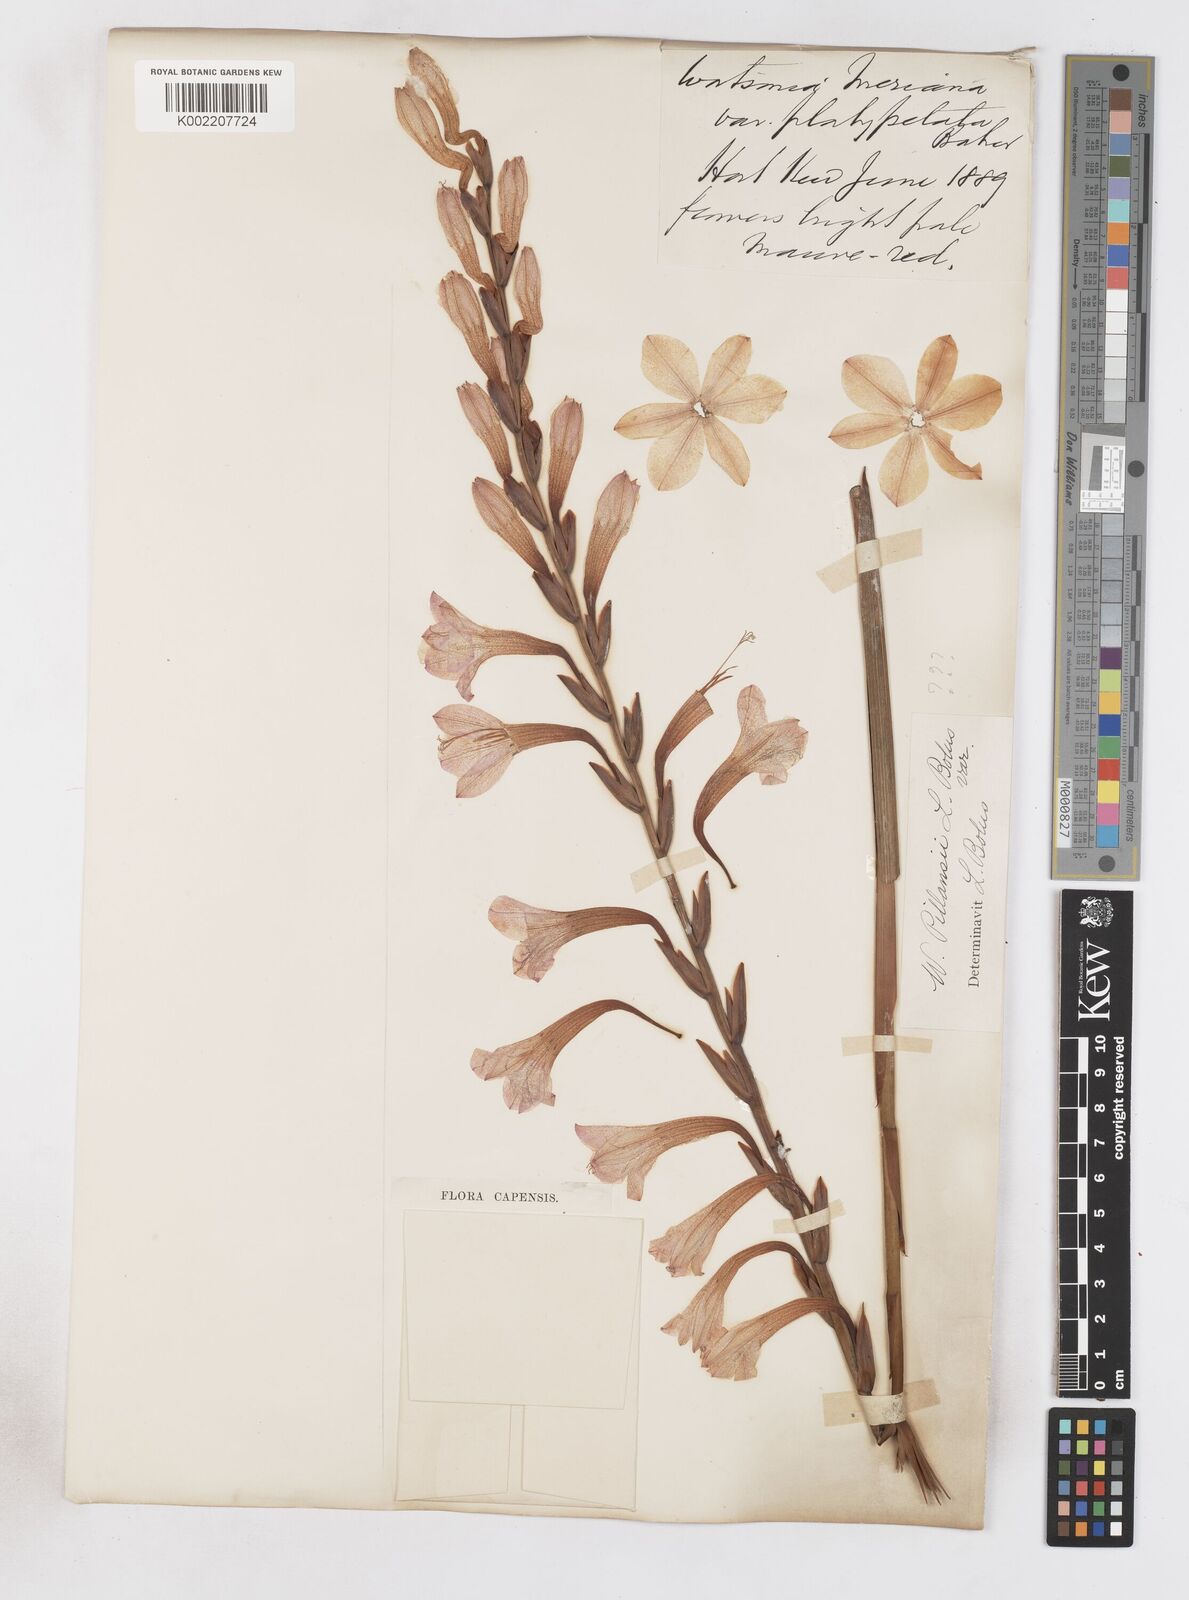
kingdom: Plantae
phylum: Tracheophyta
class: Liliopsida
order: Asparagales
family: Iridaceae
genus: Watsonia
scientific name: Watsonia
